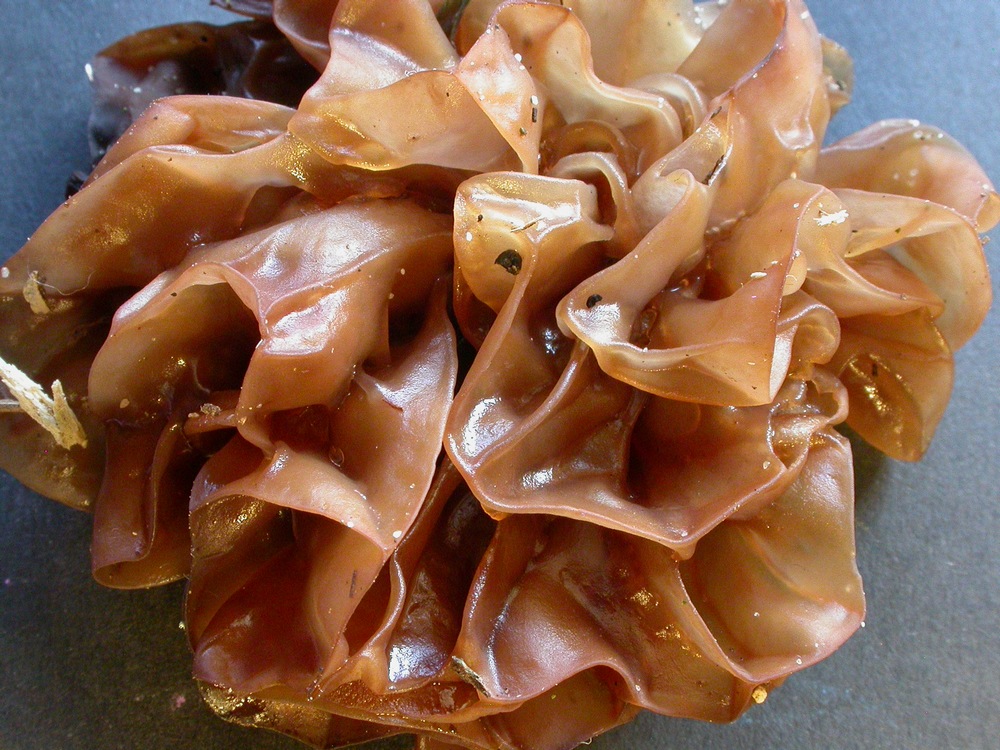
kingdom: Fungi
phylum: Basidiomycota
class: Tremellomycetes
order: Tremellales
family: Tremellaceae
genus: Phaeotremella
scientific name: Phaeotremella frondosa
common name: kæmpe-bævresvamp
